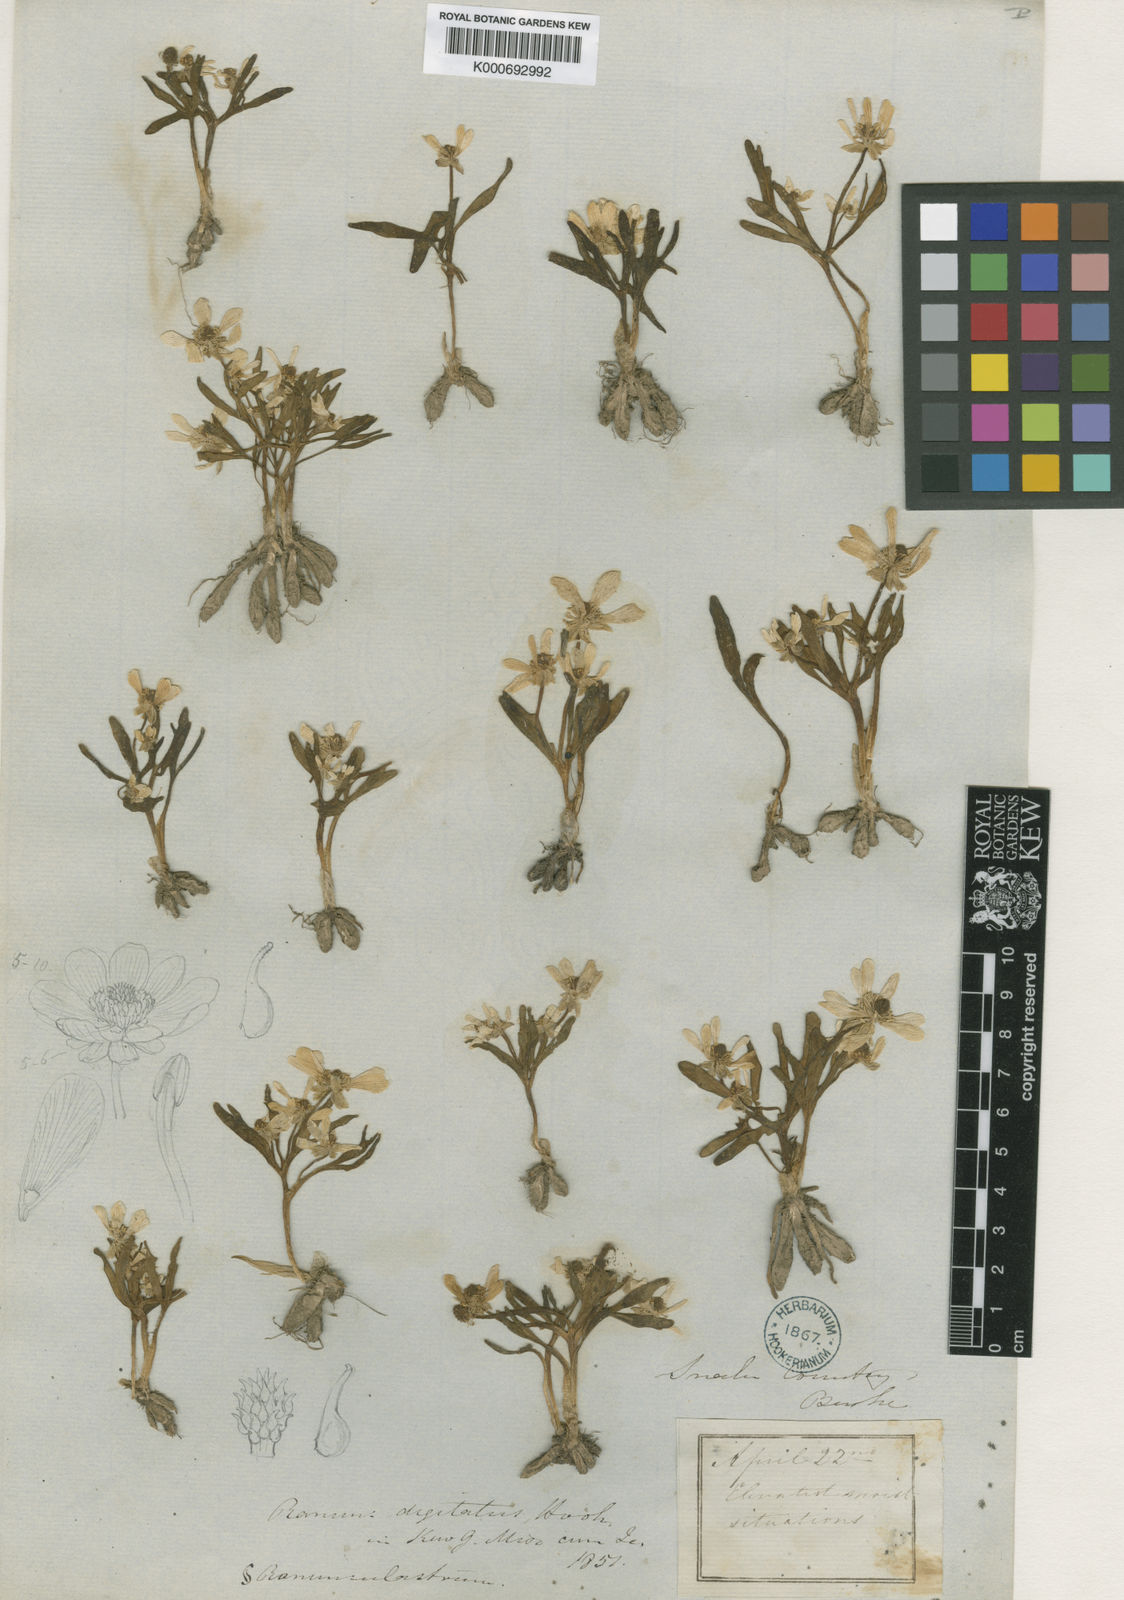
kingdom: Plantae
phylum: Tracheophyta
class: Magnoliopsida
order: Ranunculales
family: Ranunculaceae
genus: Ranunculus
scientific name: Ranunculus digitatus
